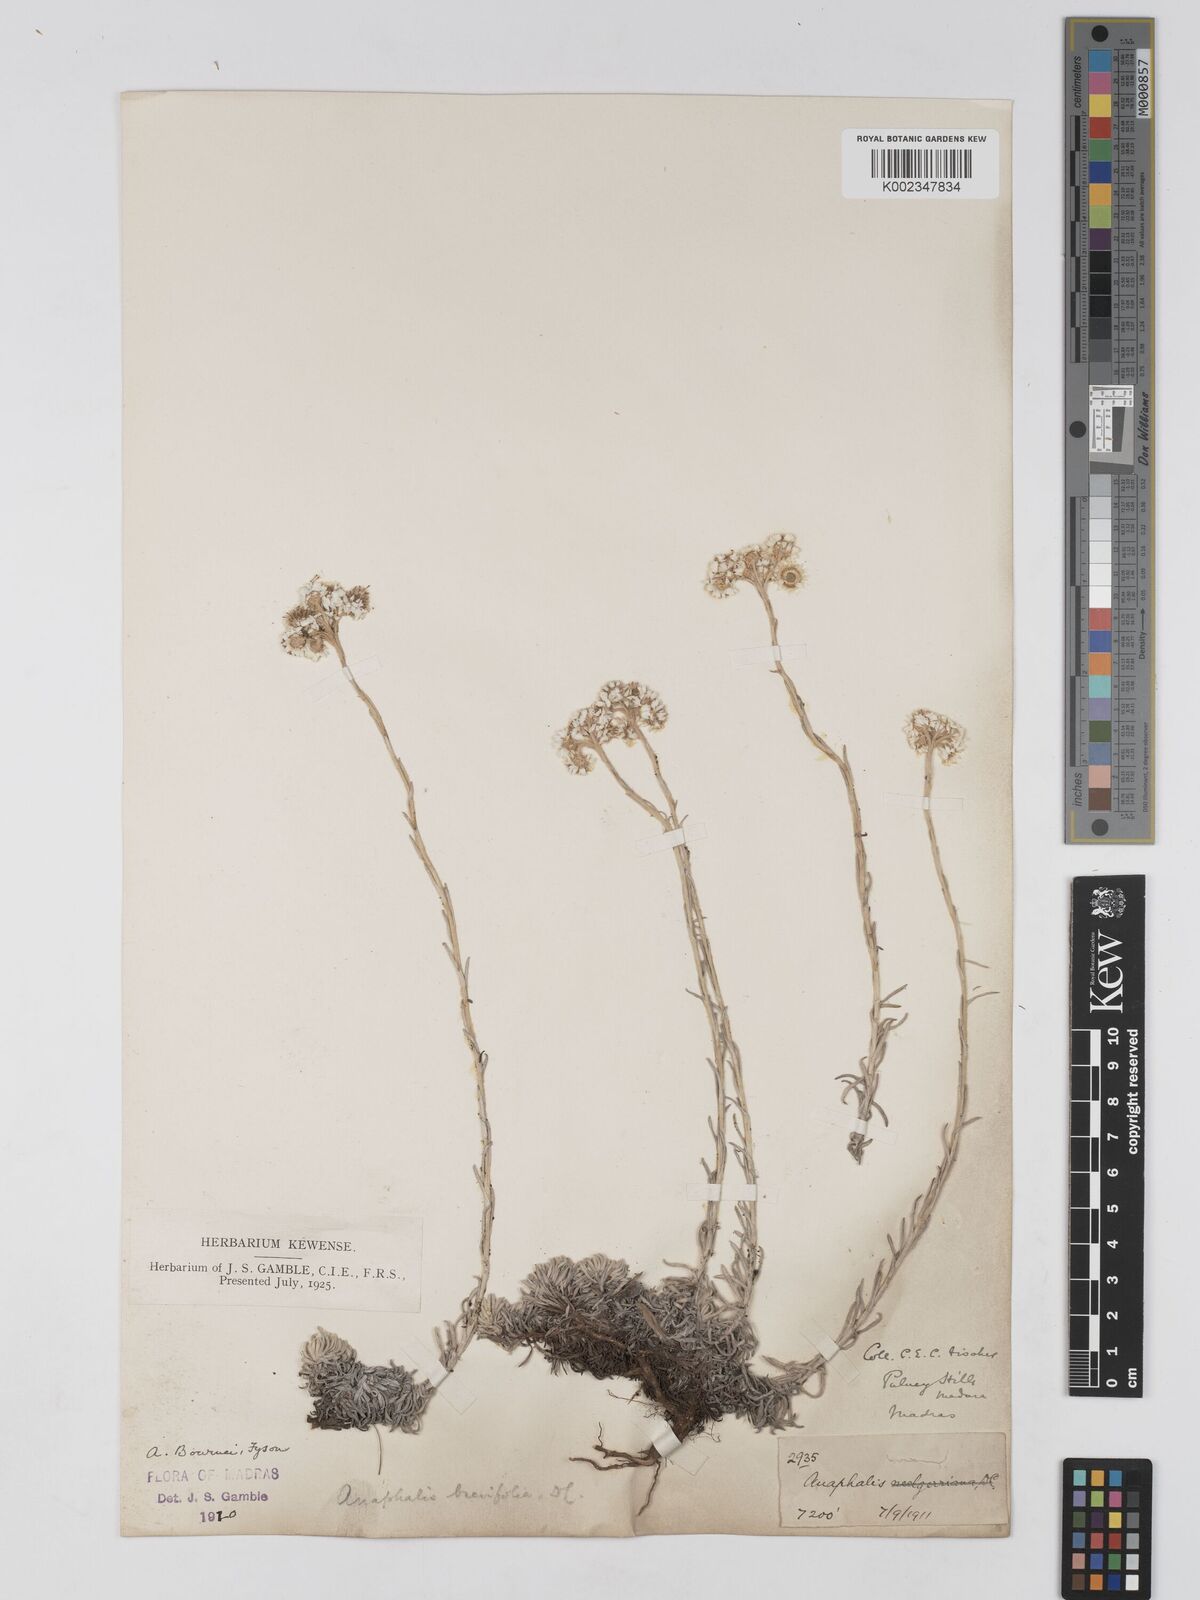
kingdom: Plantae
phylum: Tracheophyta
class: Magnoliopsida
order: Asterales
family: Asteraceae
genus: Anaphalis
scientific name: Anaphalis brevifolia
